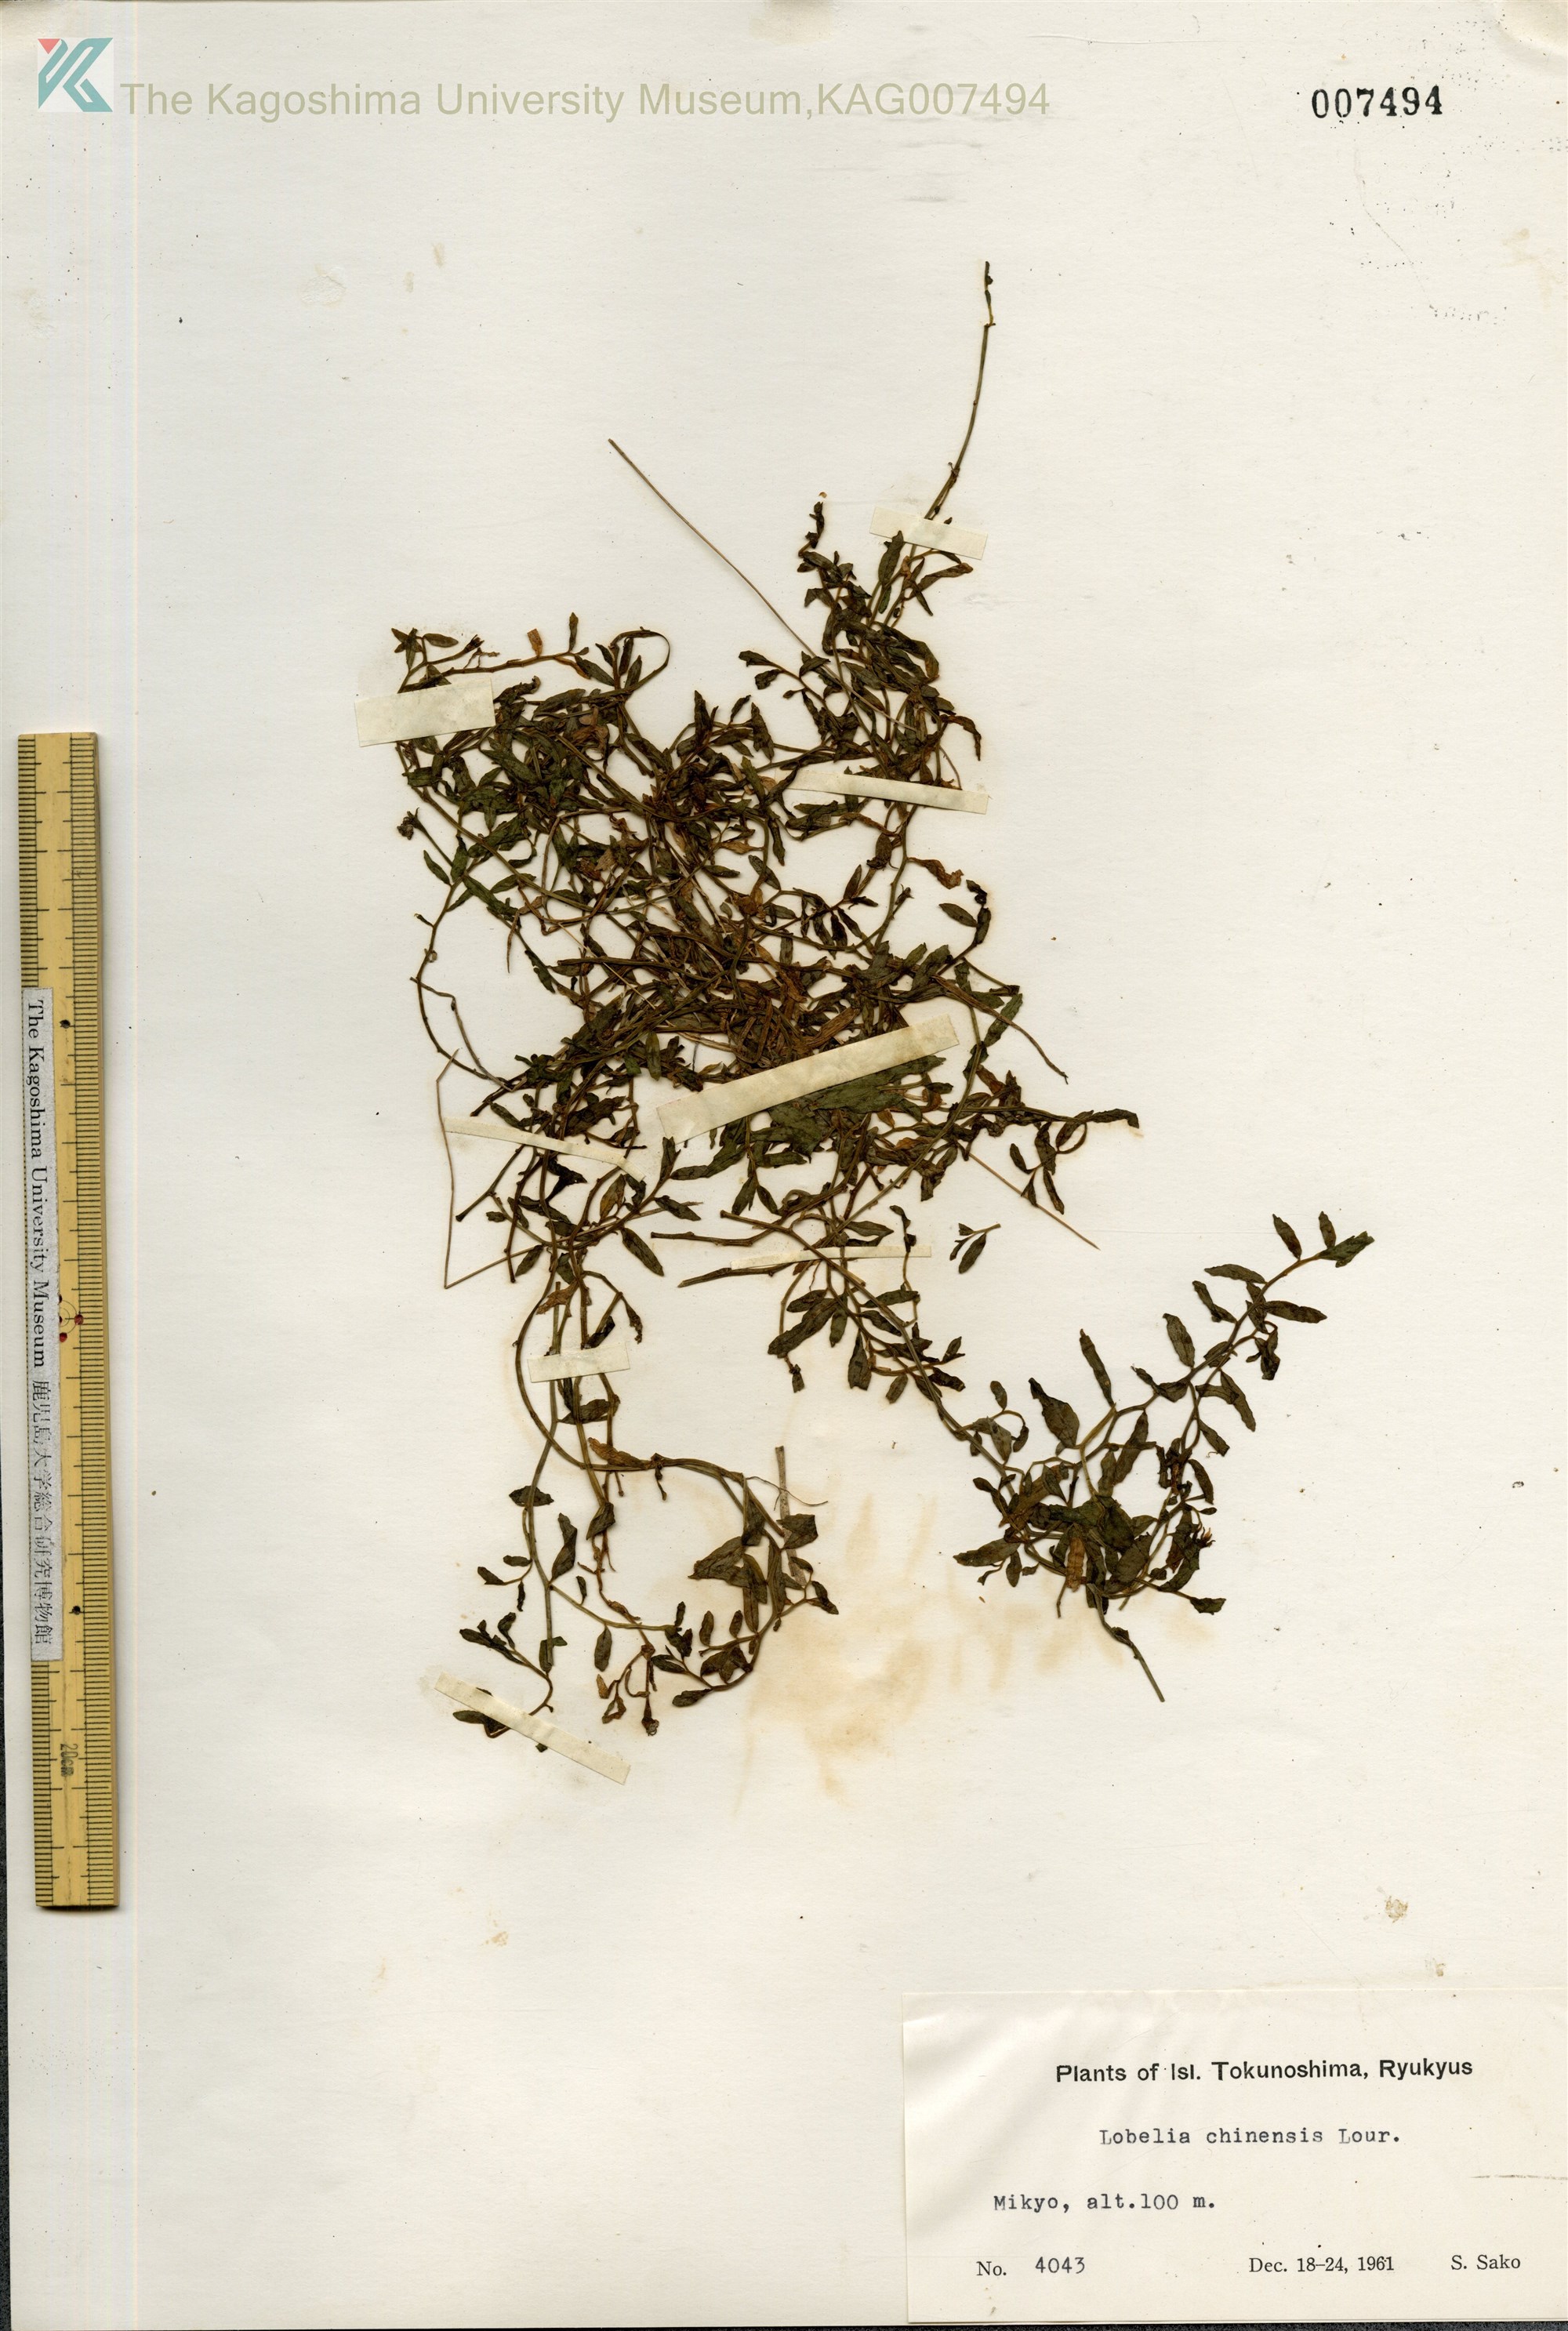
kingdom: Plantae
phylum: Tracheophyta
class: Magnoliopsida
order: Asterales
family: Campanulaceae
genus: Lobelia
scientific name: Lobelia chinensis
